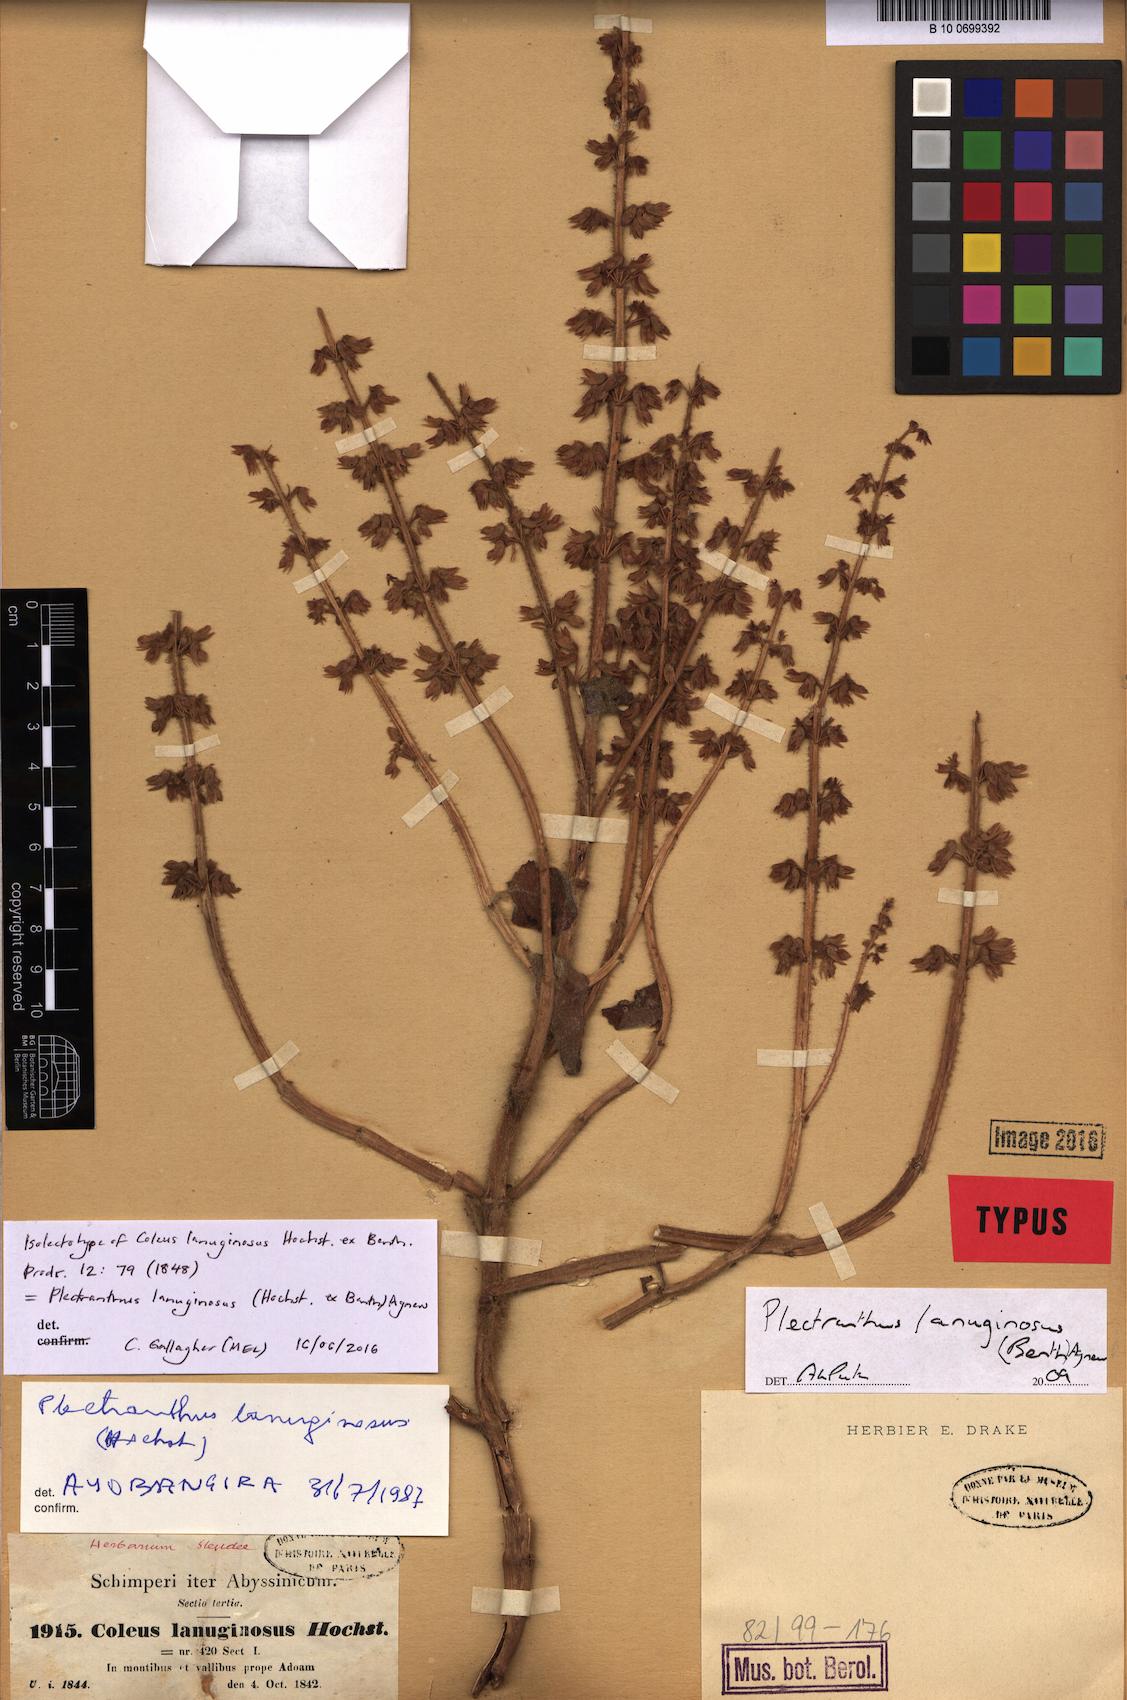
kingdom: Plantae
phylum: Tracheophyta
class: Magnoliopsida
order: Lamiales
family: Lamiaceae
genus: Coleus
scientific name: Coleus lanuginosus
